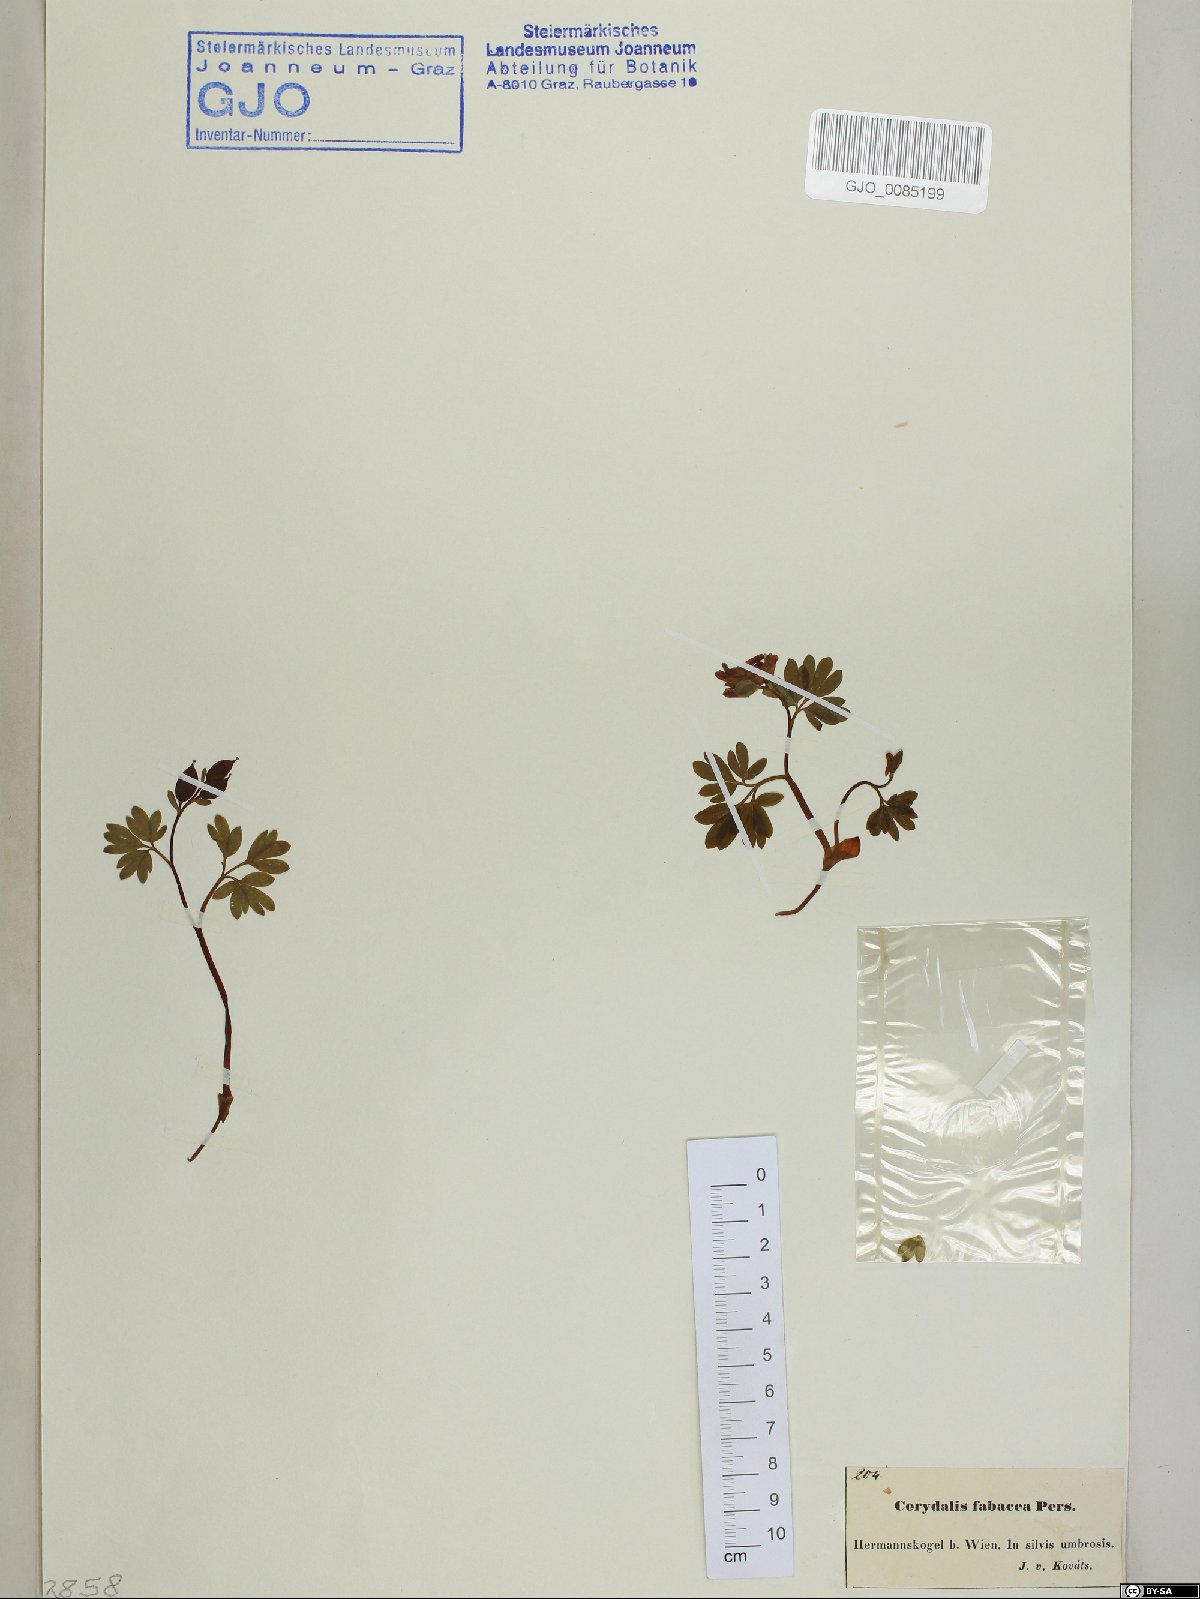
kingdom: Plantae
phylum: Tracheophyta
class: Magnoliopsida
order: Ranunculales
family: Papaveraceae
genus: Corydalis
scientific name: Corydalis intermedia
